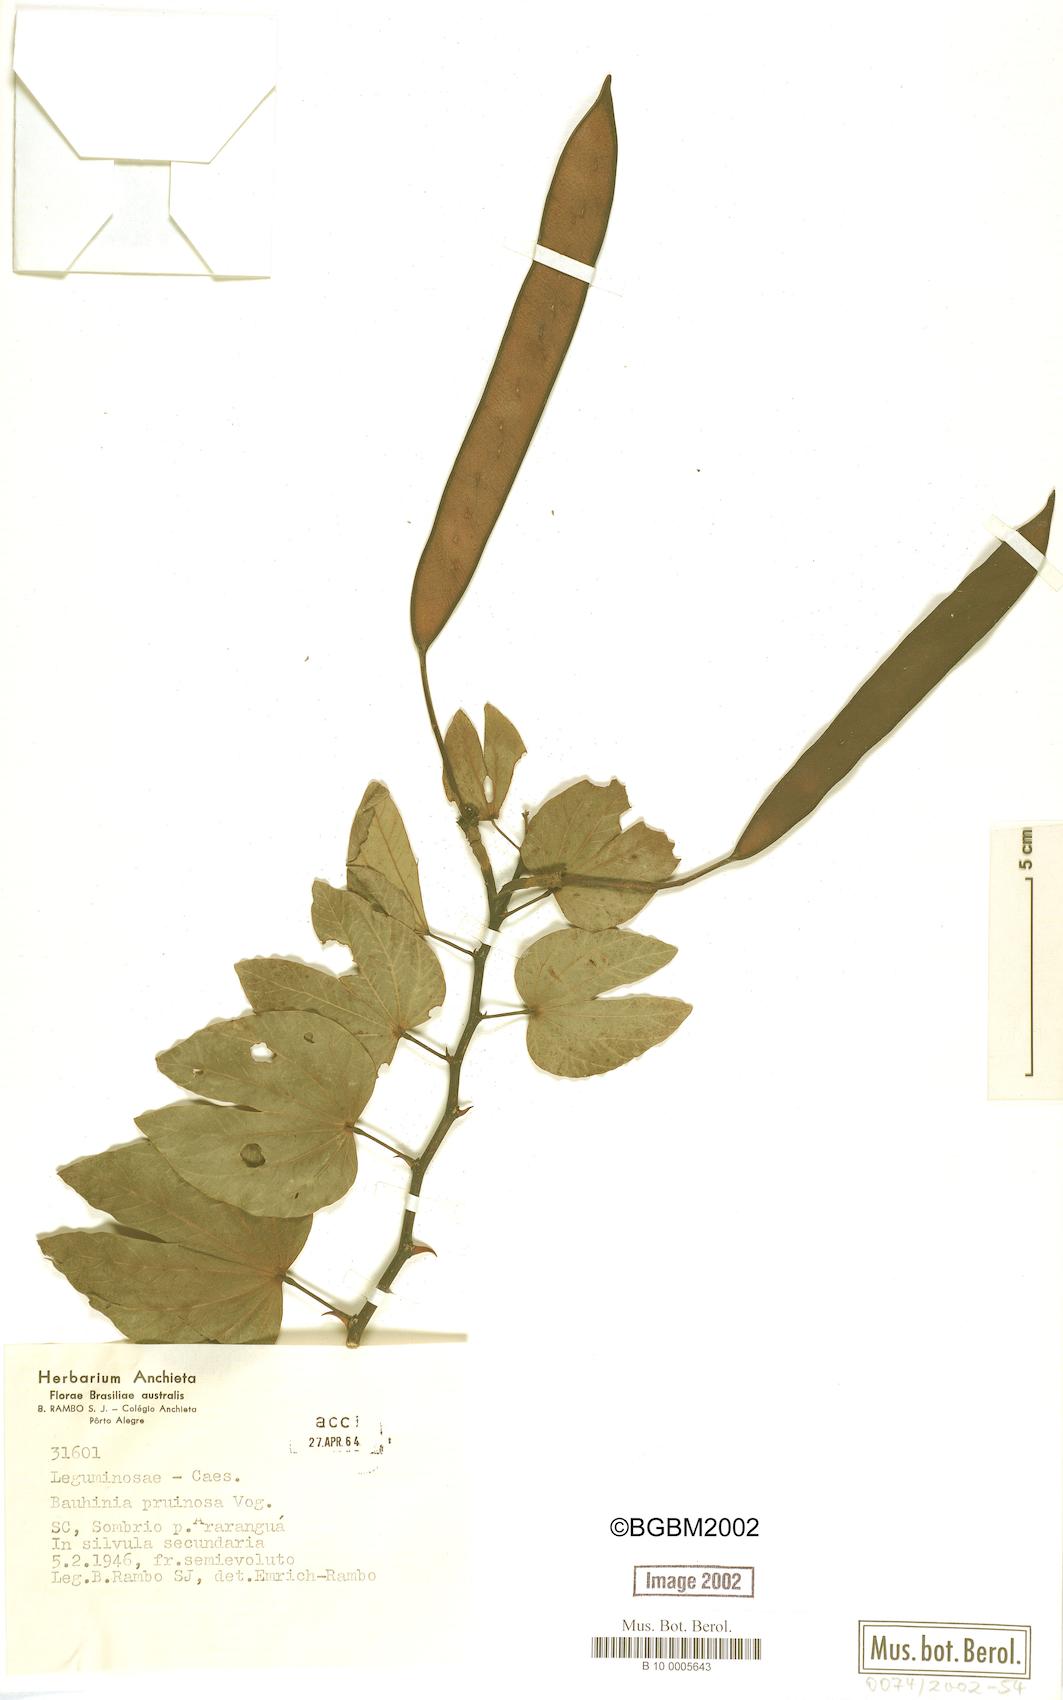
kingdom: Plantae
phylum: Tracheophyta
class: Magnoliopsida
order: Fabales
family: Fabaceae
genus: Bauhinia
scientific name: Bauhinia forficata
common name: Orchid tree
